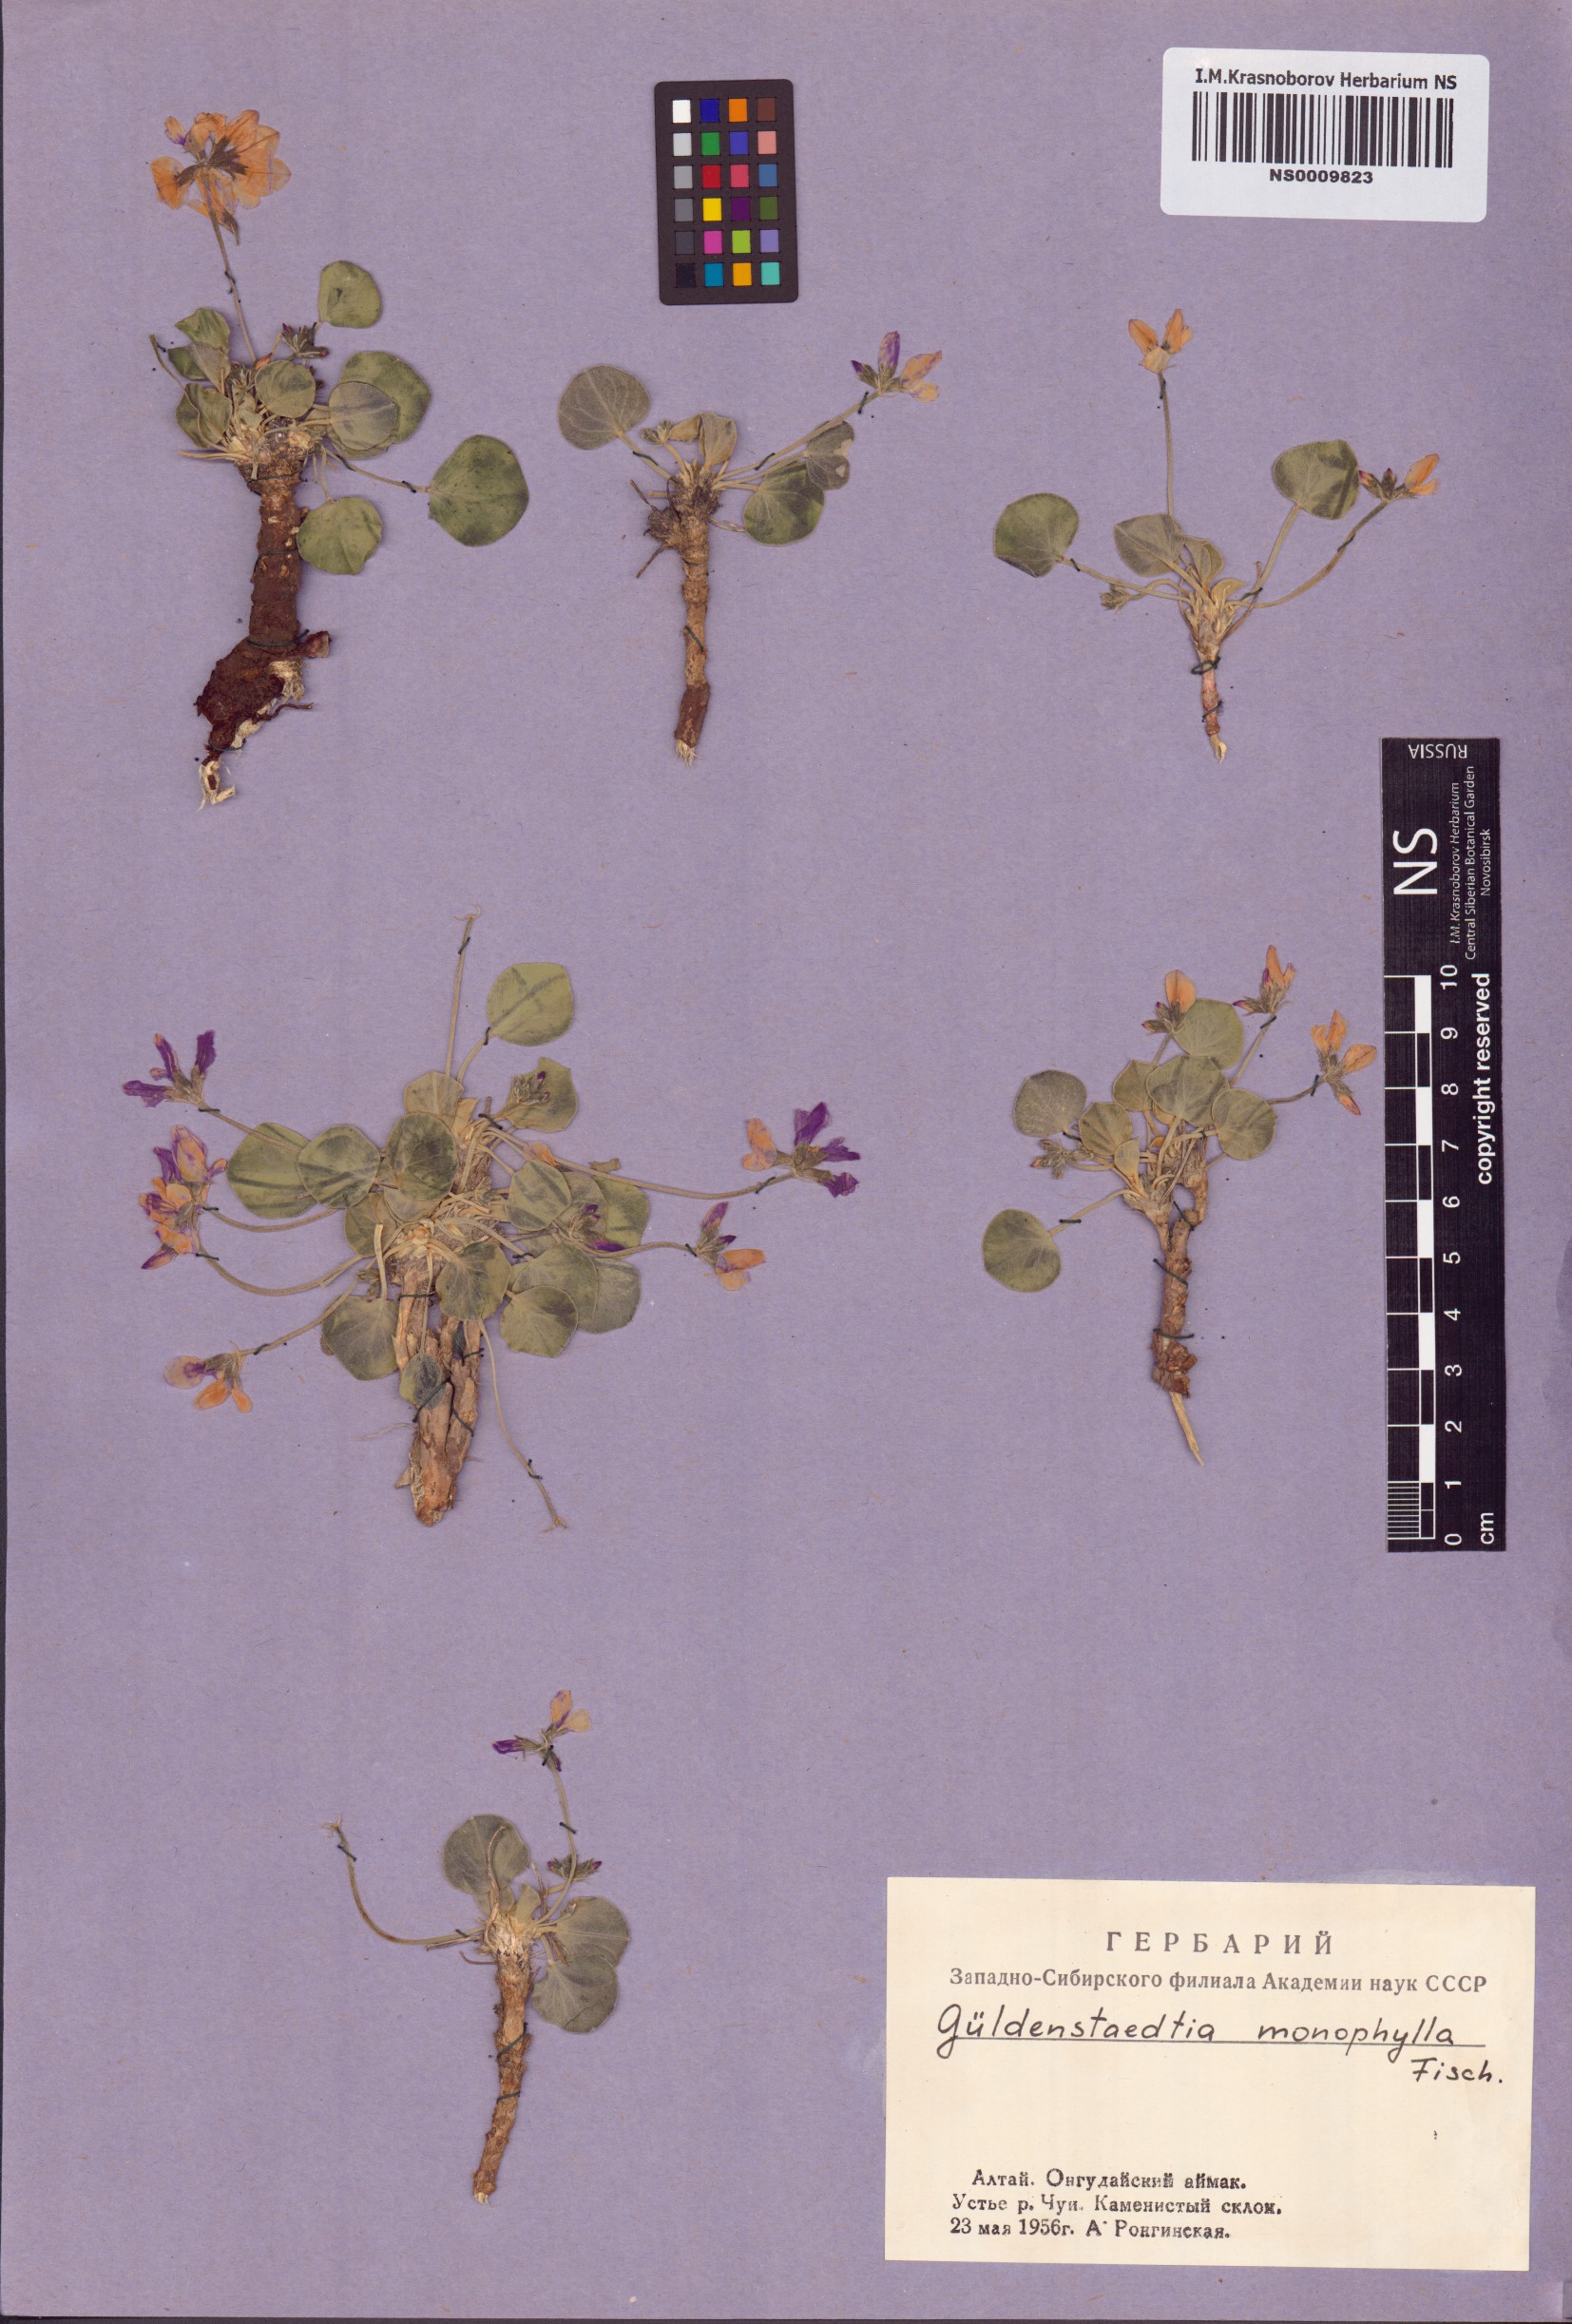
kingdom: Plantae
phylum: Tracheophyta
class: Magnoliopsida
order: Fabales
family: Fabaceae
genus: Gueldenstaedtia
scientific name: Gueldenstaedtia monophylla
